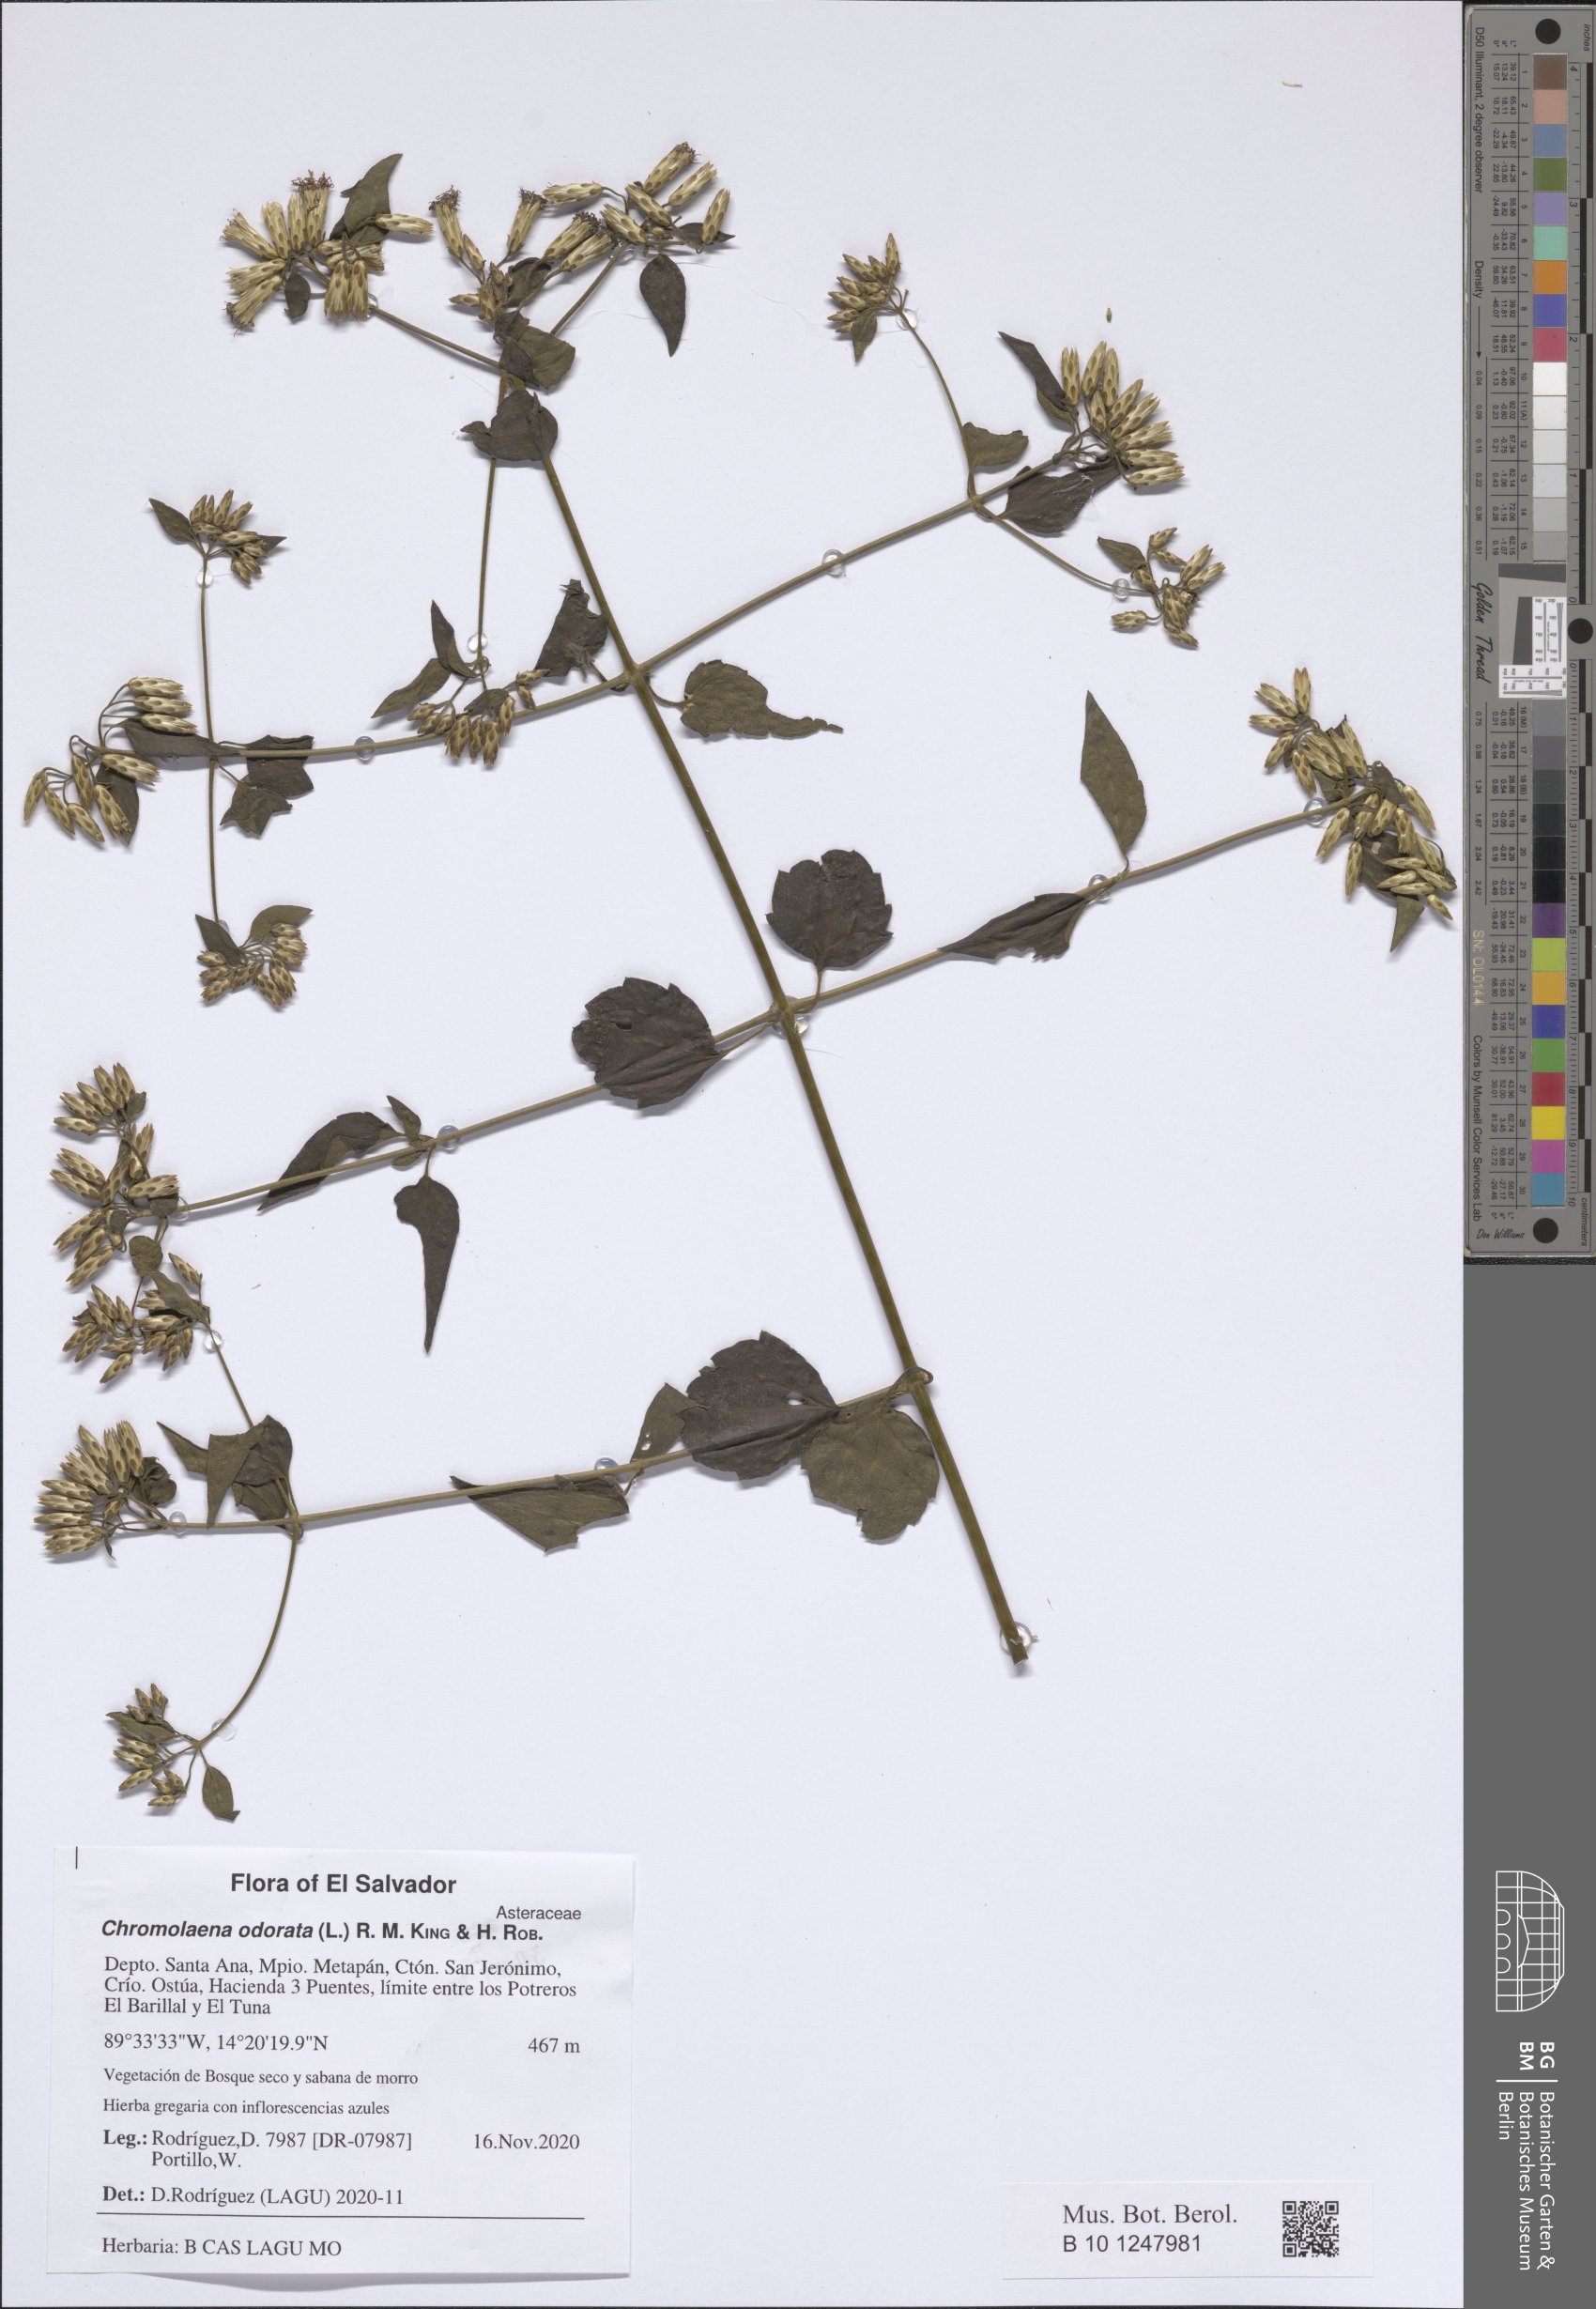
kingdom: Plantae
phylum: Tracheophyta
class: Magnoliopsida
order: Asterales
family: Asteraceae
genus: Chromolaena
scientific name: Chromolaena odorata
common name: Siamweed
